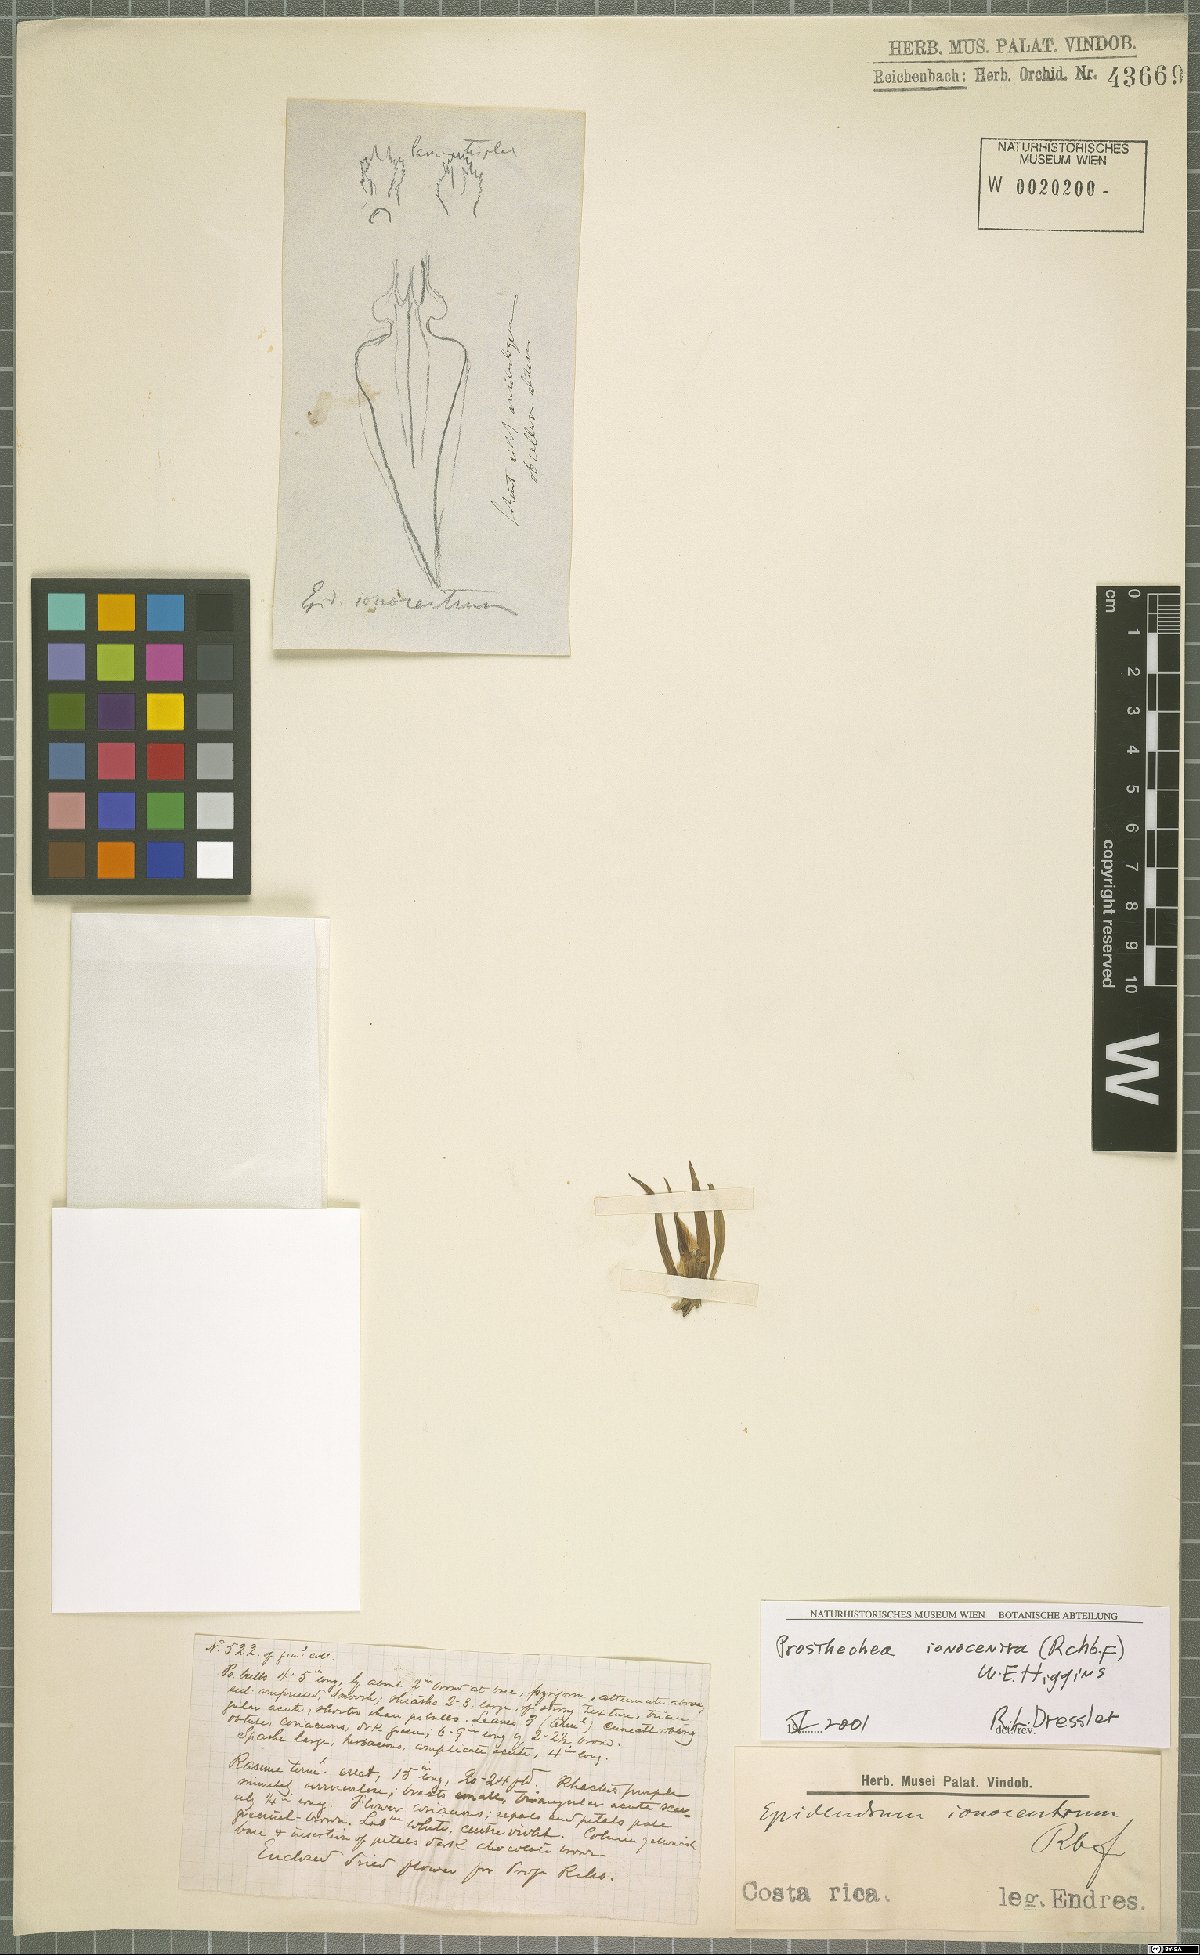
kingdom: Plantae
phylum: Tracheophyta
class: Liliopsida
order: Asparagales
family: Orchidaceae
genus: Prosthechea
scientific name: Prosthechea ionocentra
